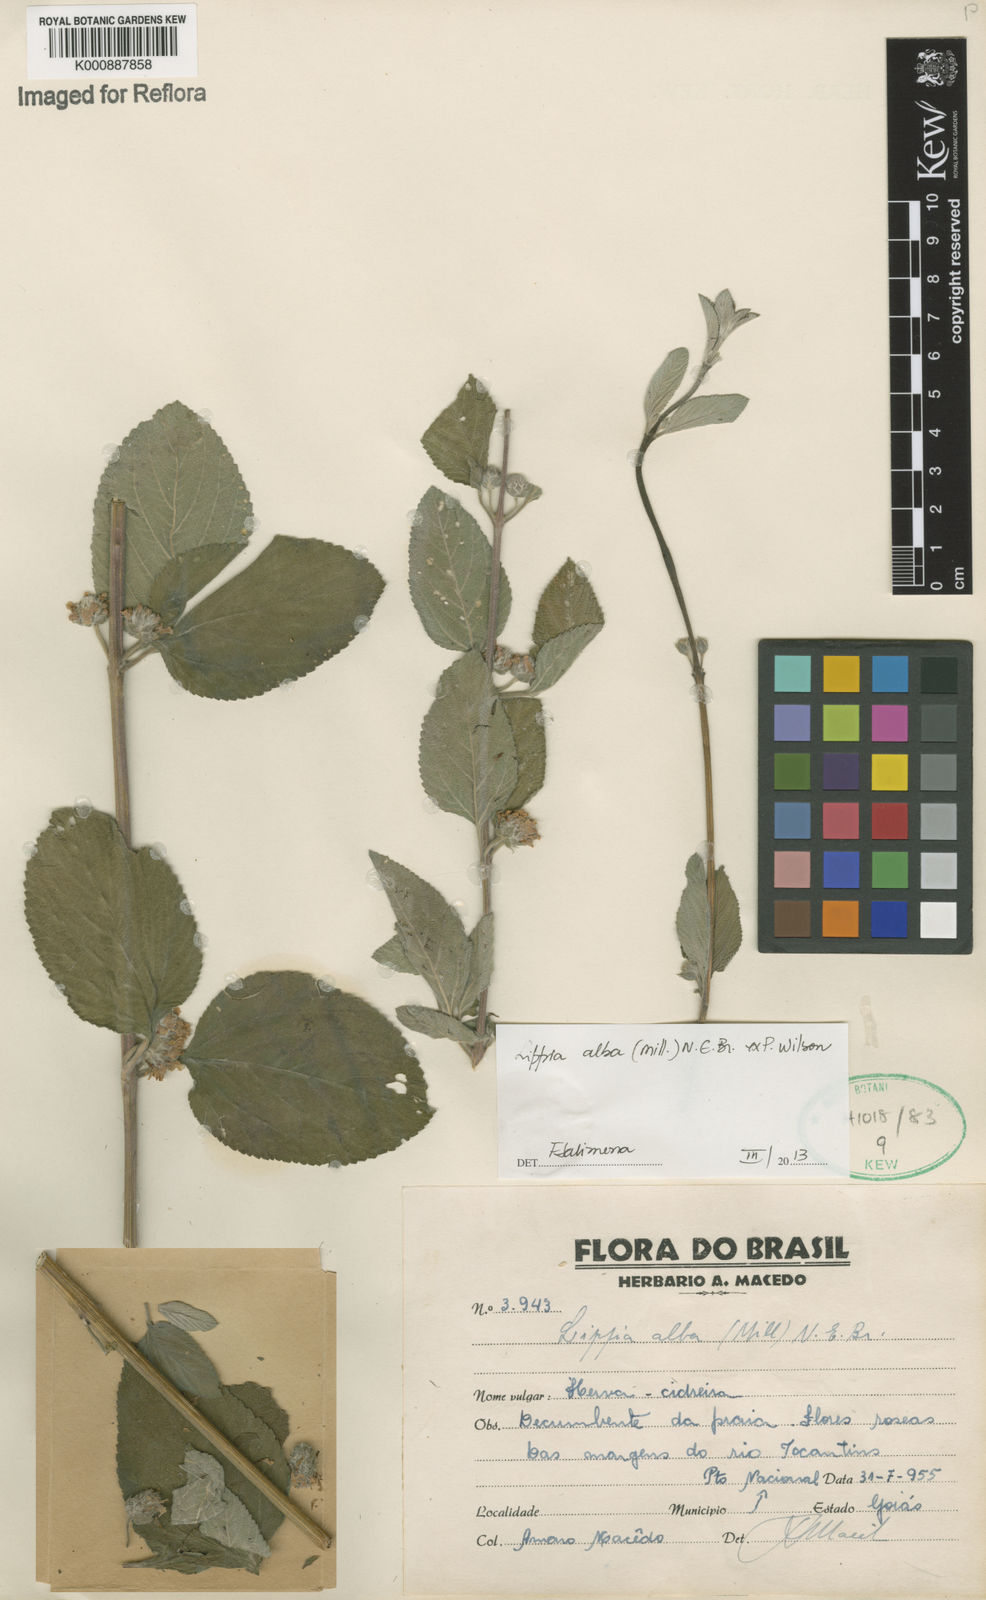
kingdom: Plantae
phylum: Tracheophyta
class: Magnoliopsida
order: Lamiales
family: Verbenaceae
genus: Lippia
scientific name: Lippia
